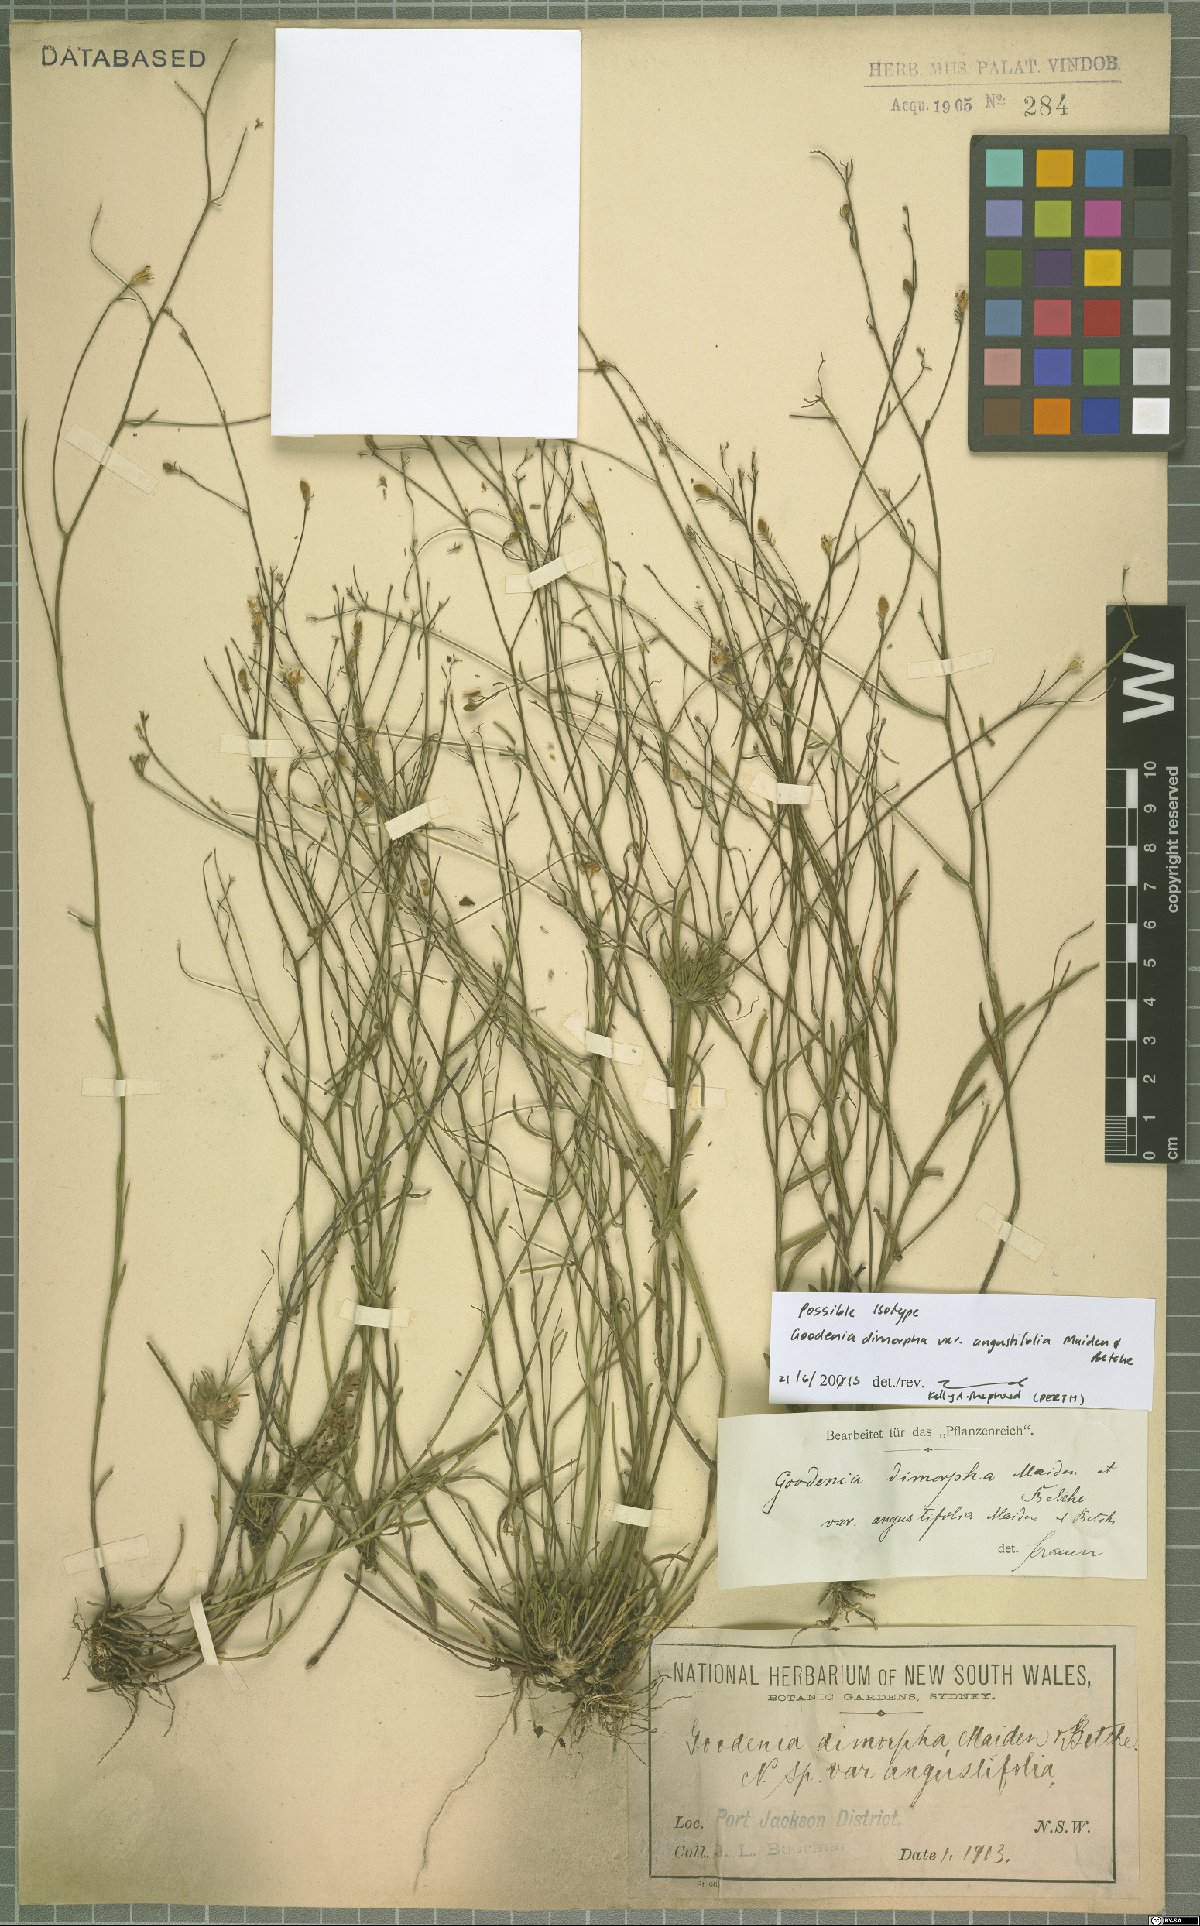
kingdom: Plantae
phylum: Tracheophyta
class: Magnoliopsida
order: Asterales
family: Goodeniaceae
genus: Goodenia
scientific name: Goodenia dimorpha
